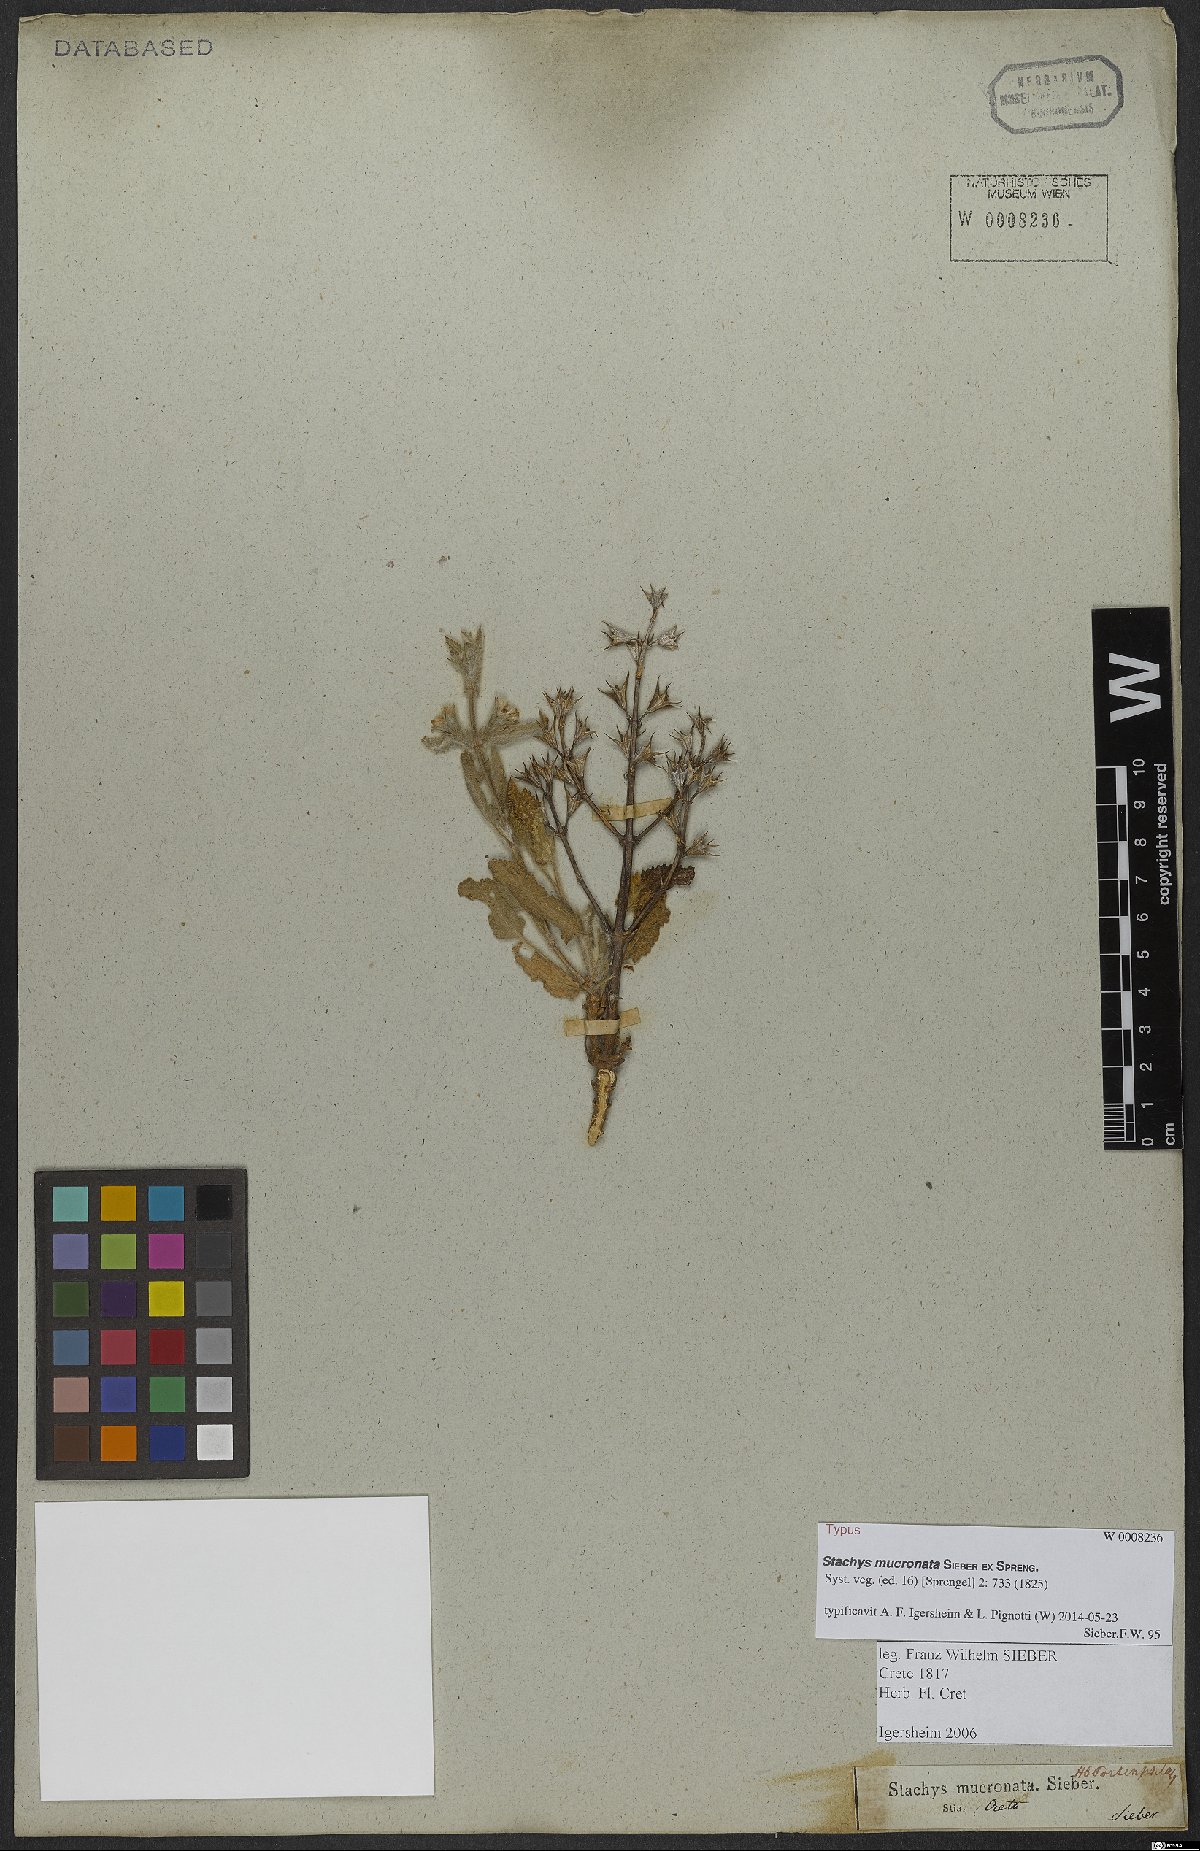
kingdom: Plantae
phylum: Tracheophyta
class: Magnoliopsida
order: Lamiales
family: Lamiaceae
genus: Stachys
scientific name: Stachys mucronata
